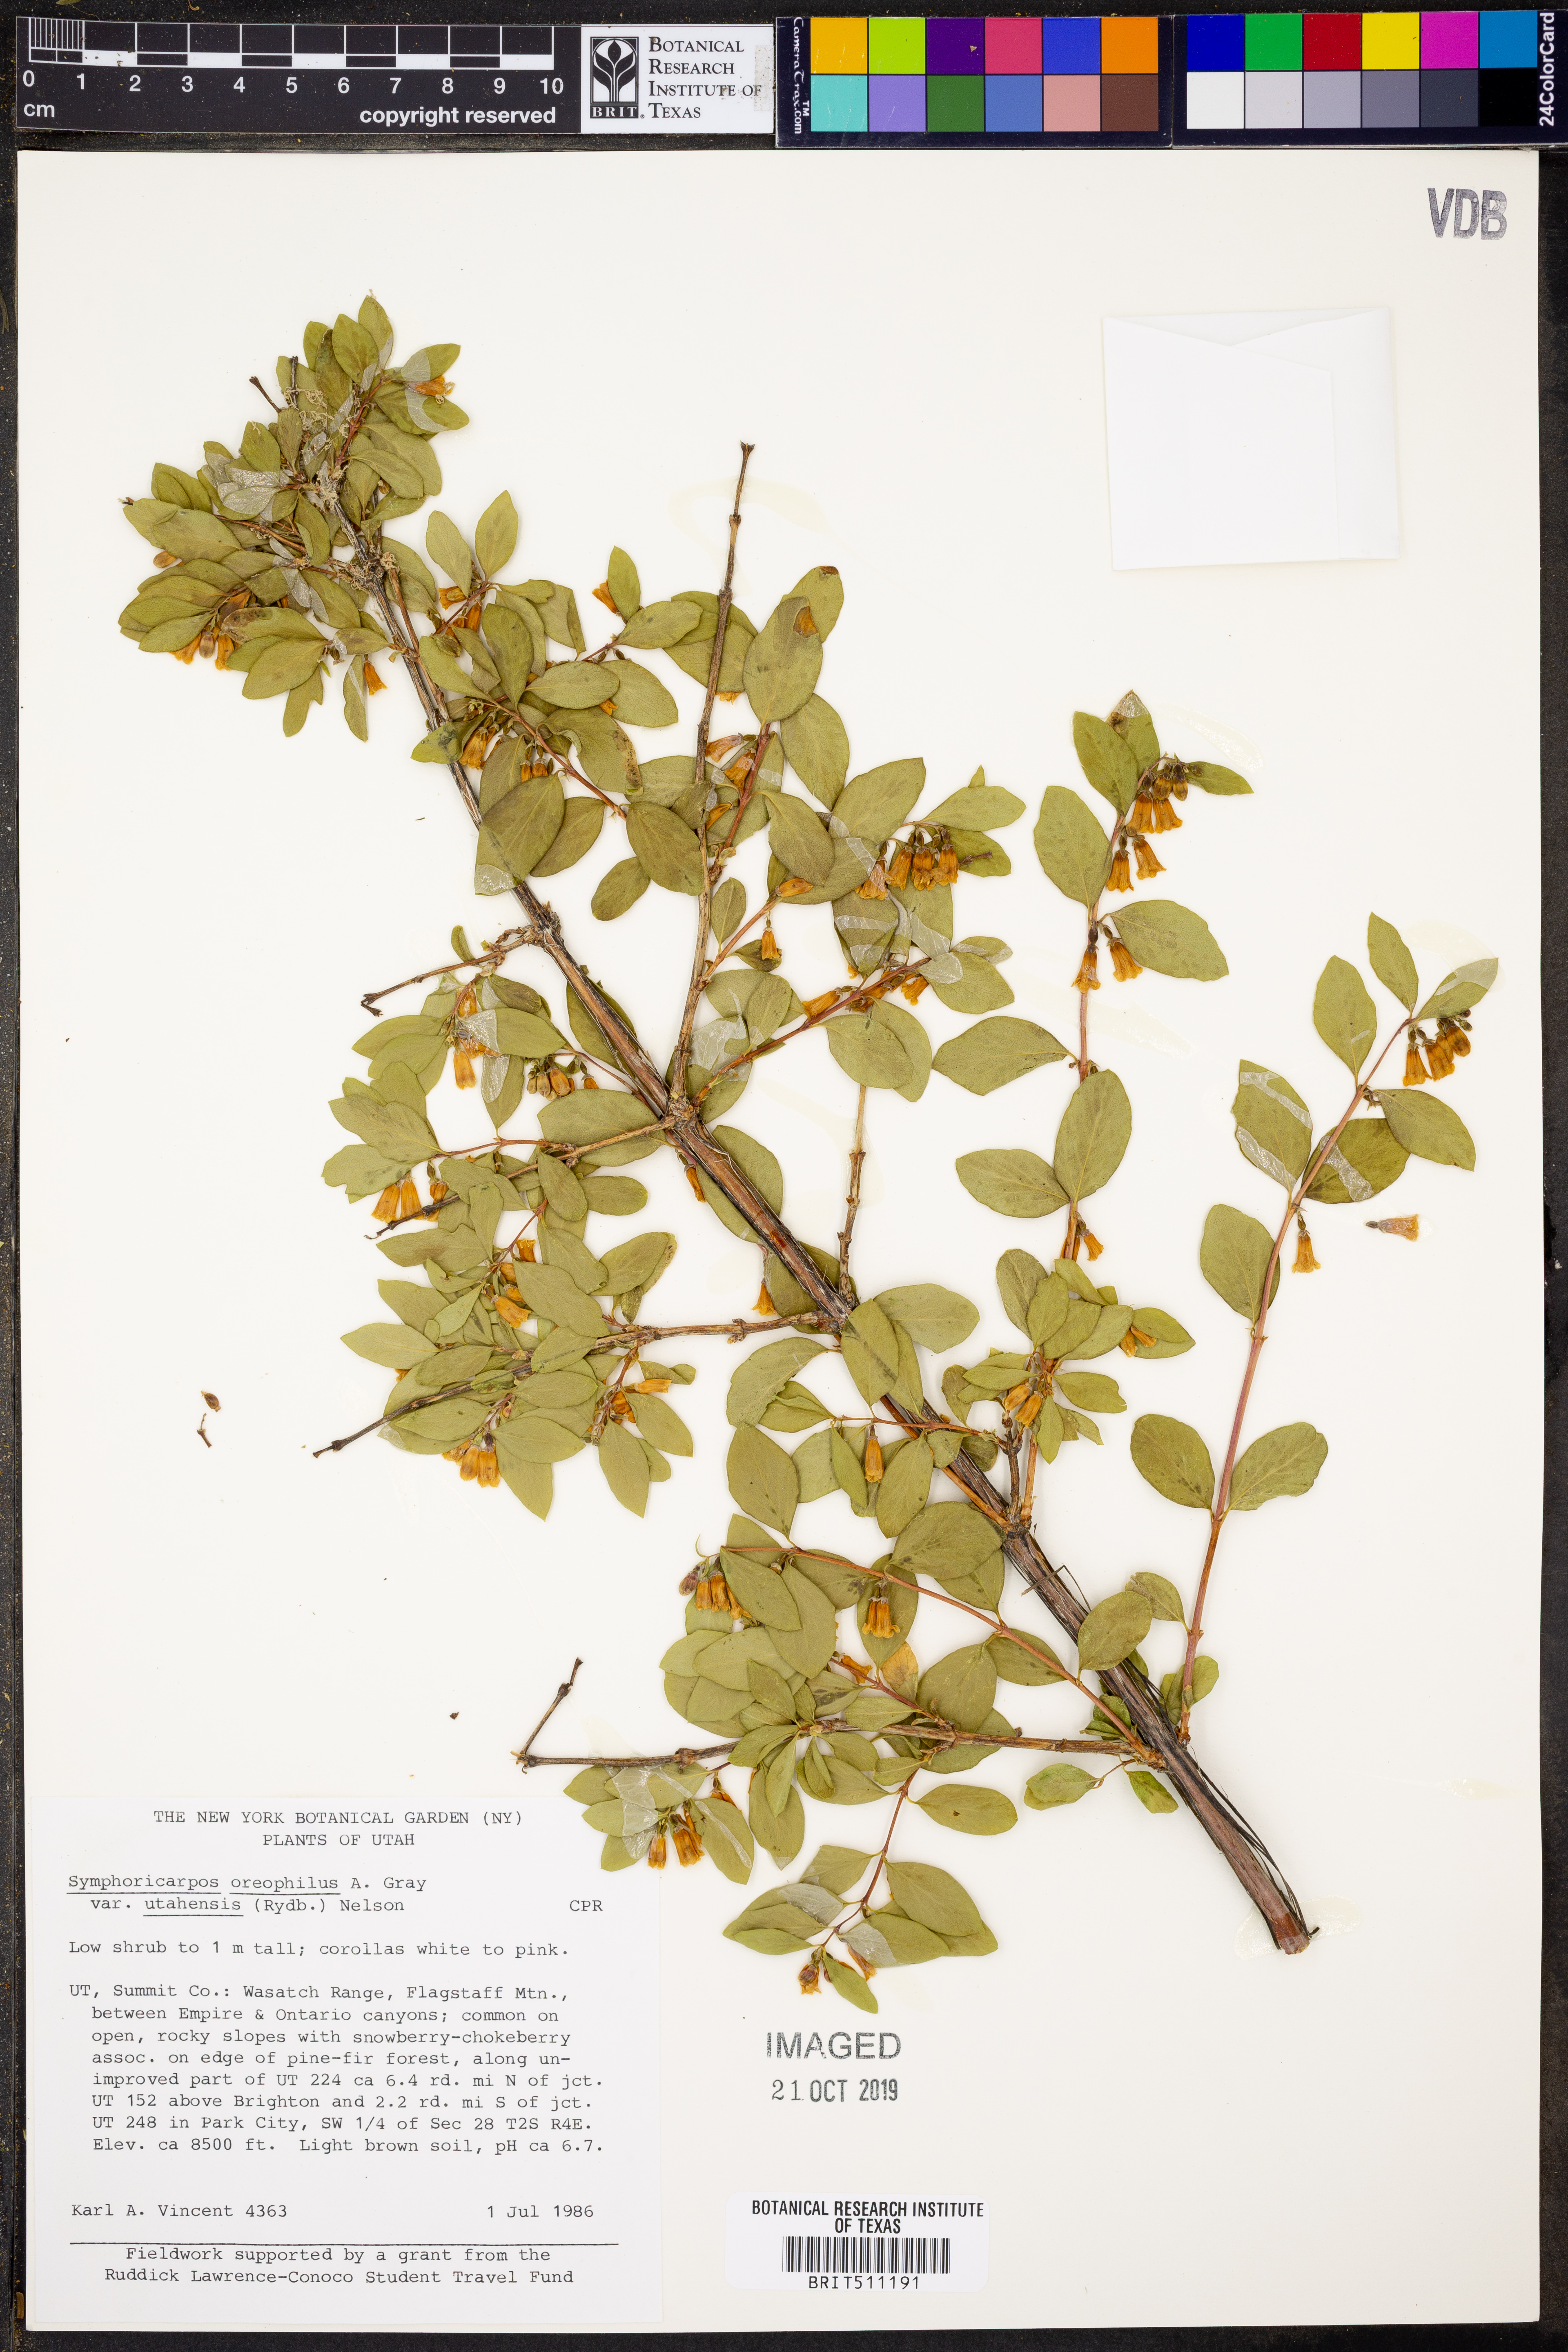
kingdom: Plantae
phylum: Tracheophyta
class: Magnoliopsida
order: Dipsacales
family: Caprifoliaceae
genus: Symphoricarpos
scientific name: Symphoricarpos oreophilus
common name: Mountain snowberry
